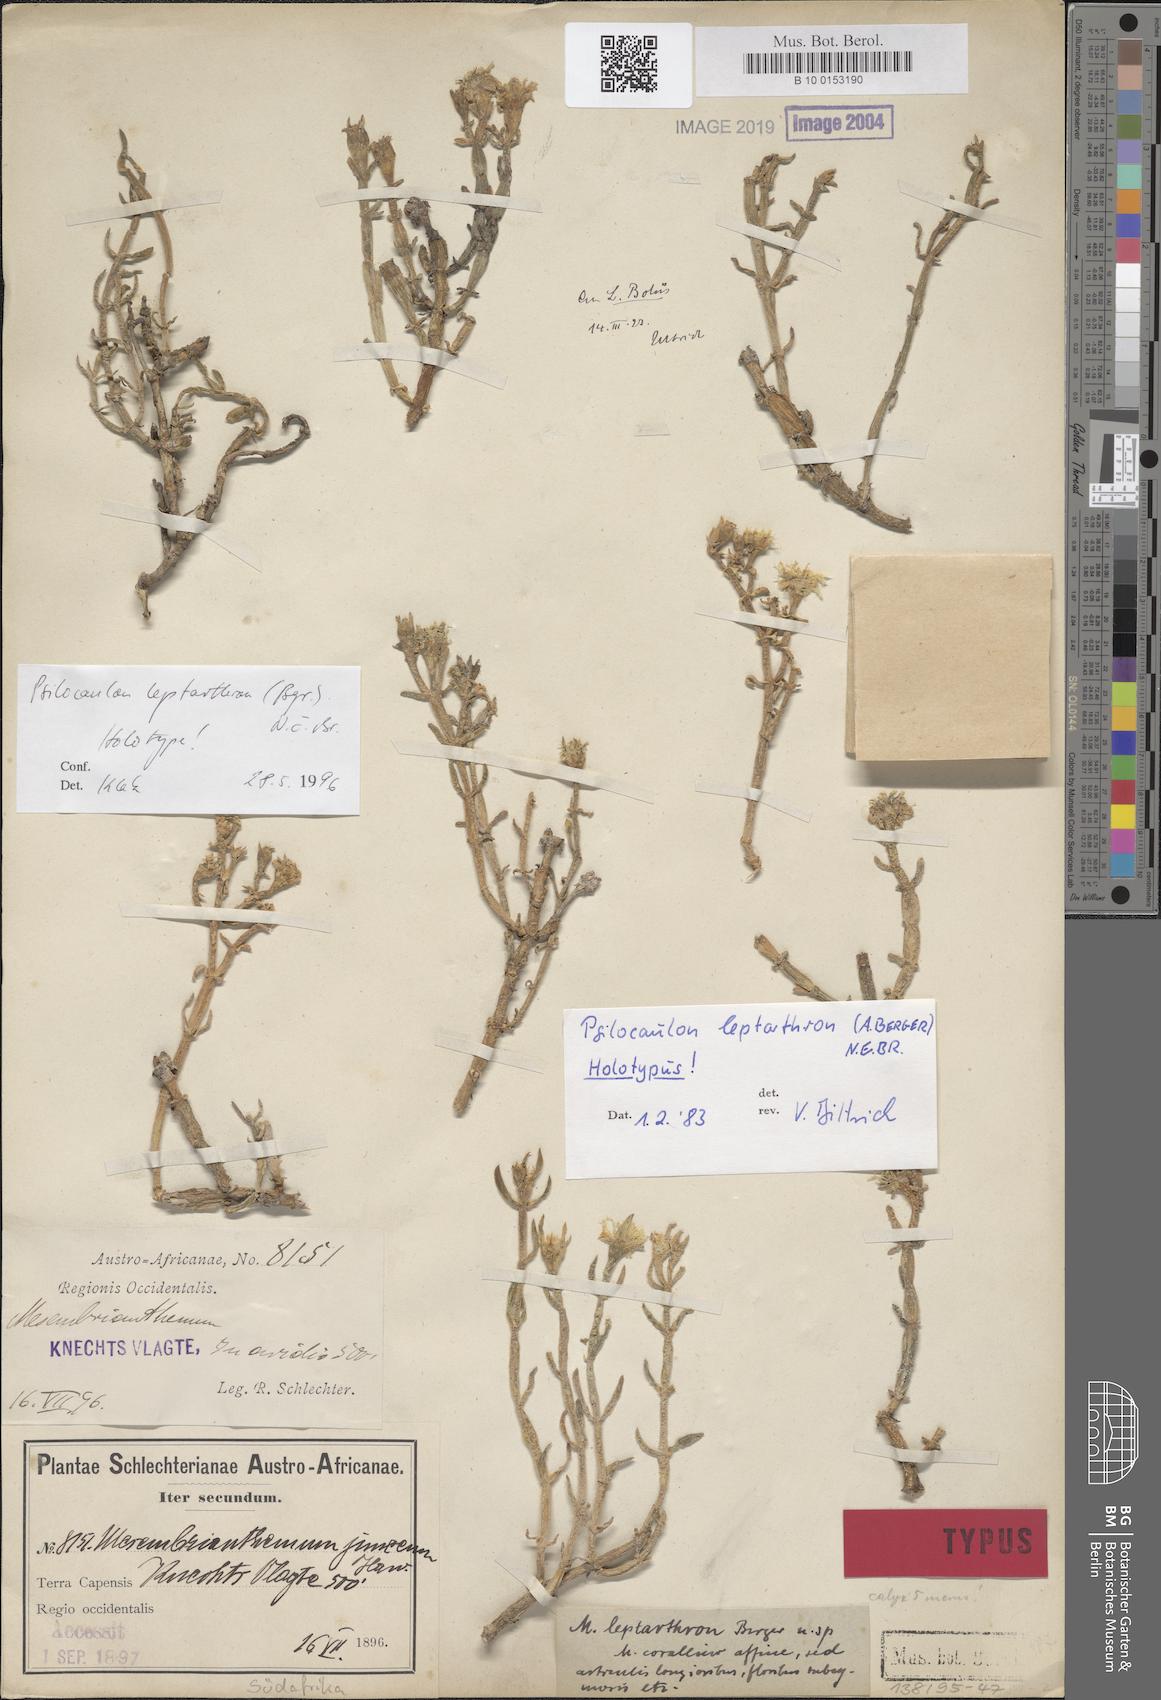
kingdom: Plantae
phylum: Tracheophyta
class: Magnoliopsida
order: Caryophyllales
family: Aizoaceae
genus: Mesembryanthemum
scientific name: Mesembryanthemum leptarthron
